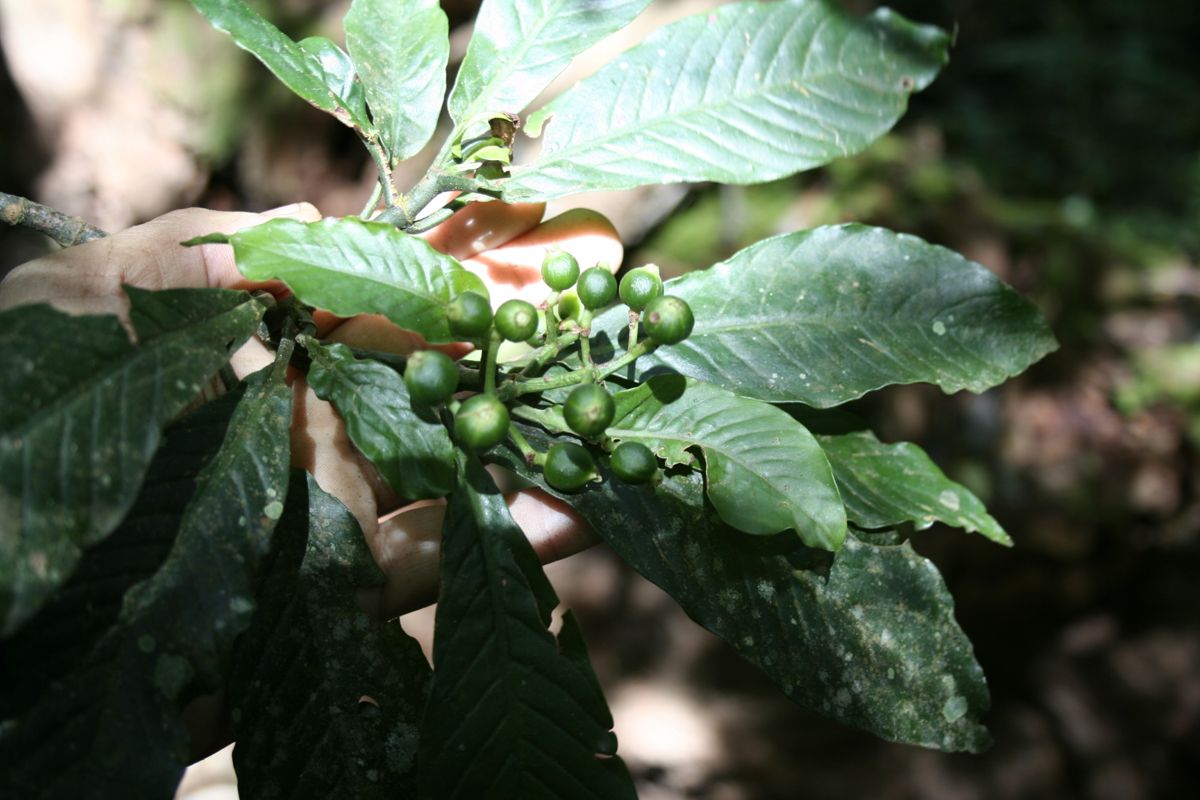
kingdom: Plantae
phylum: Tracheophyta
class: Magnoliopsida
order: Gentianales
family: Rubiaceae
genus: Psychotria
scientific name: Psychotria panamensis
